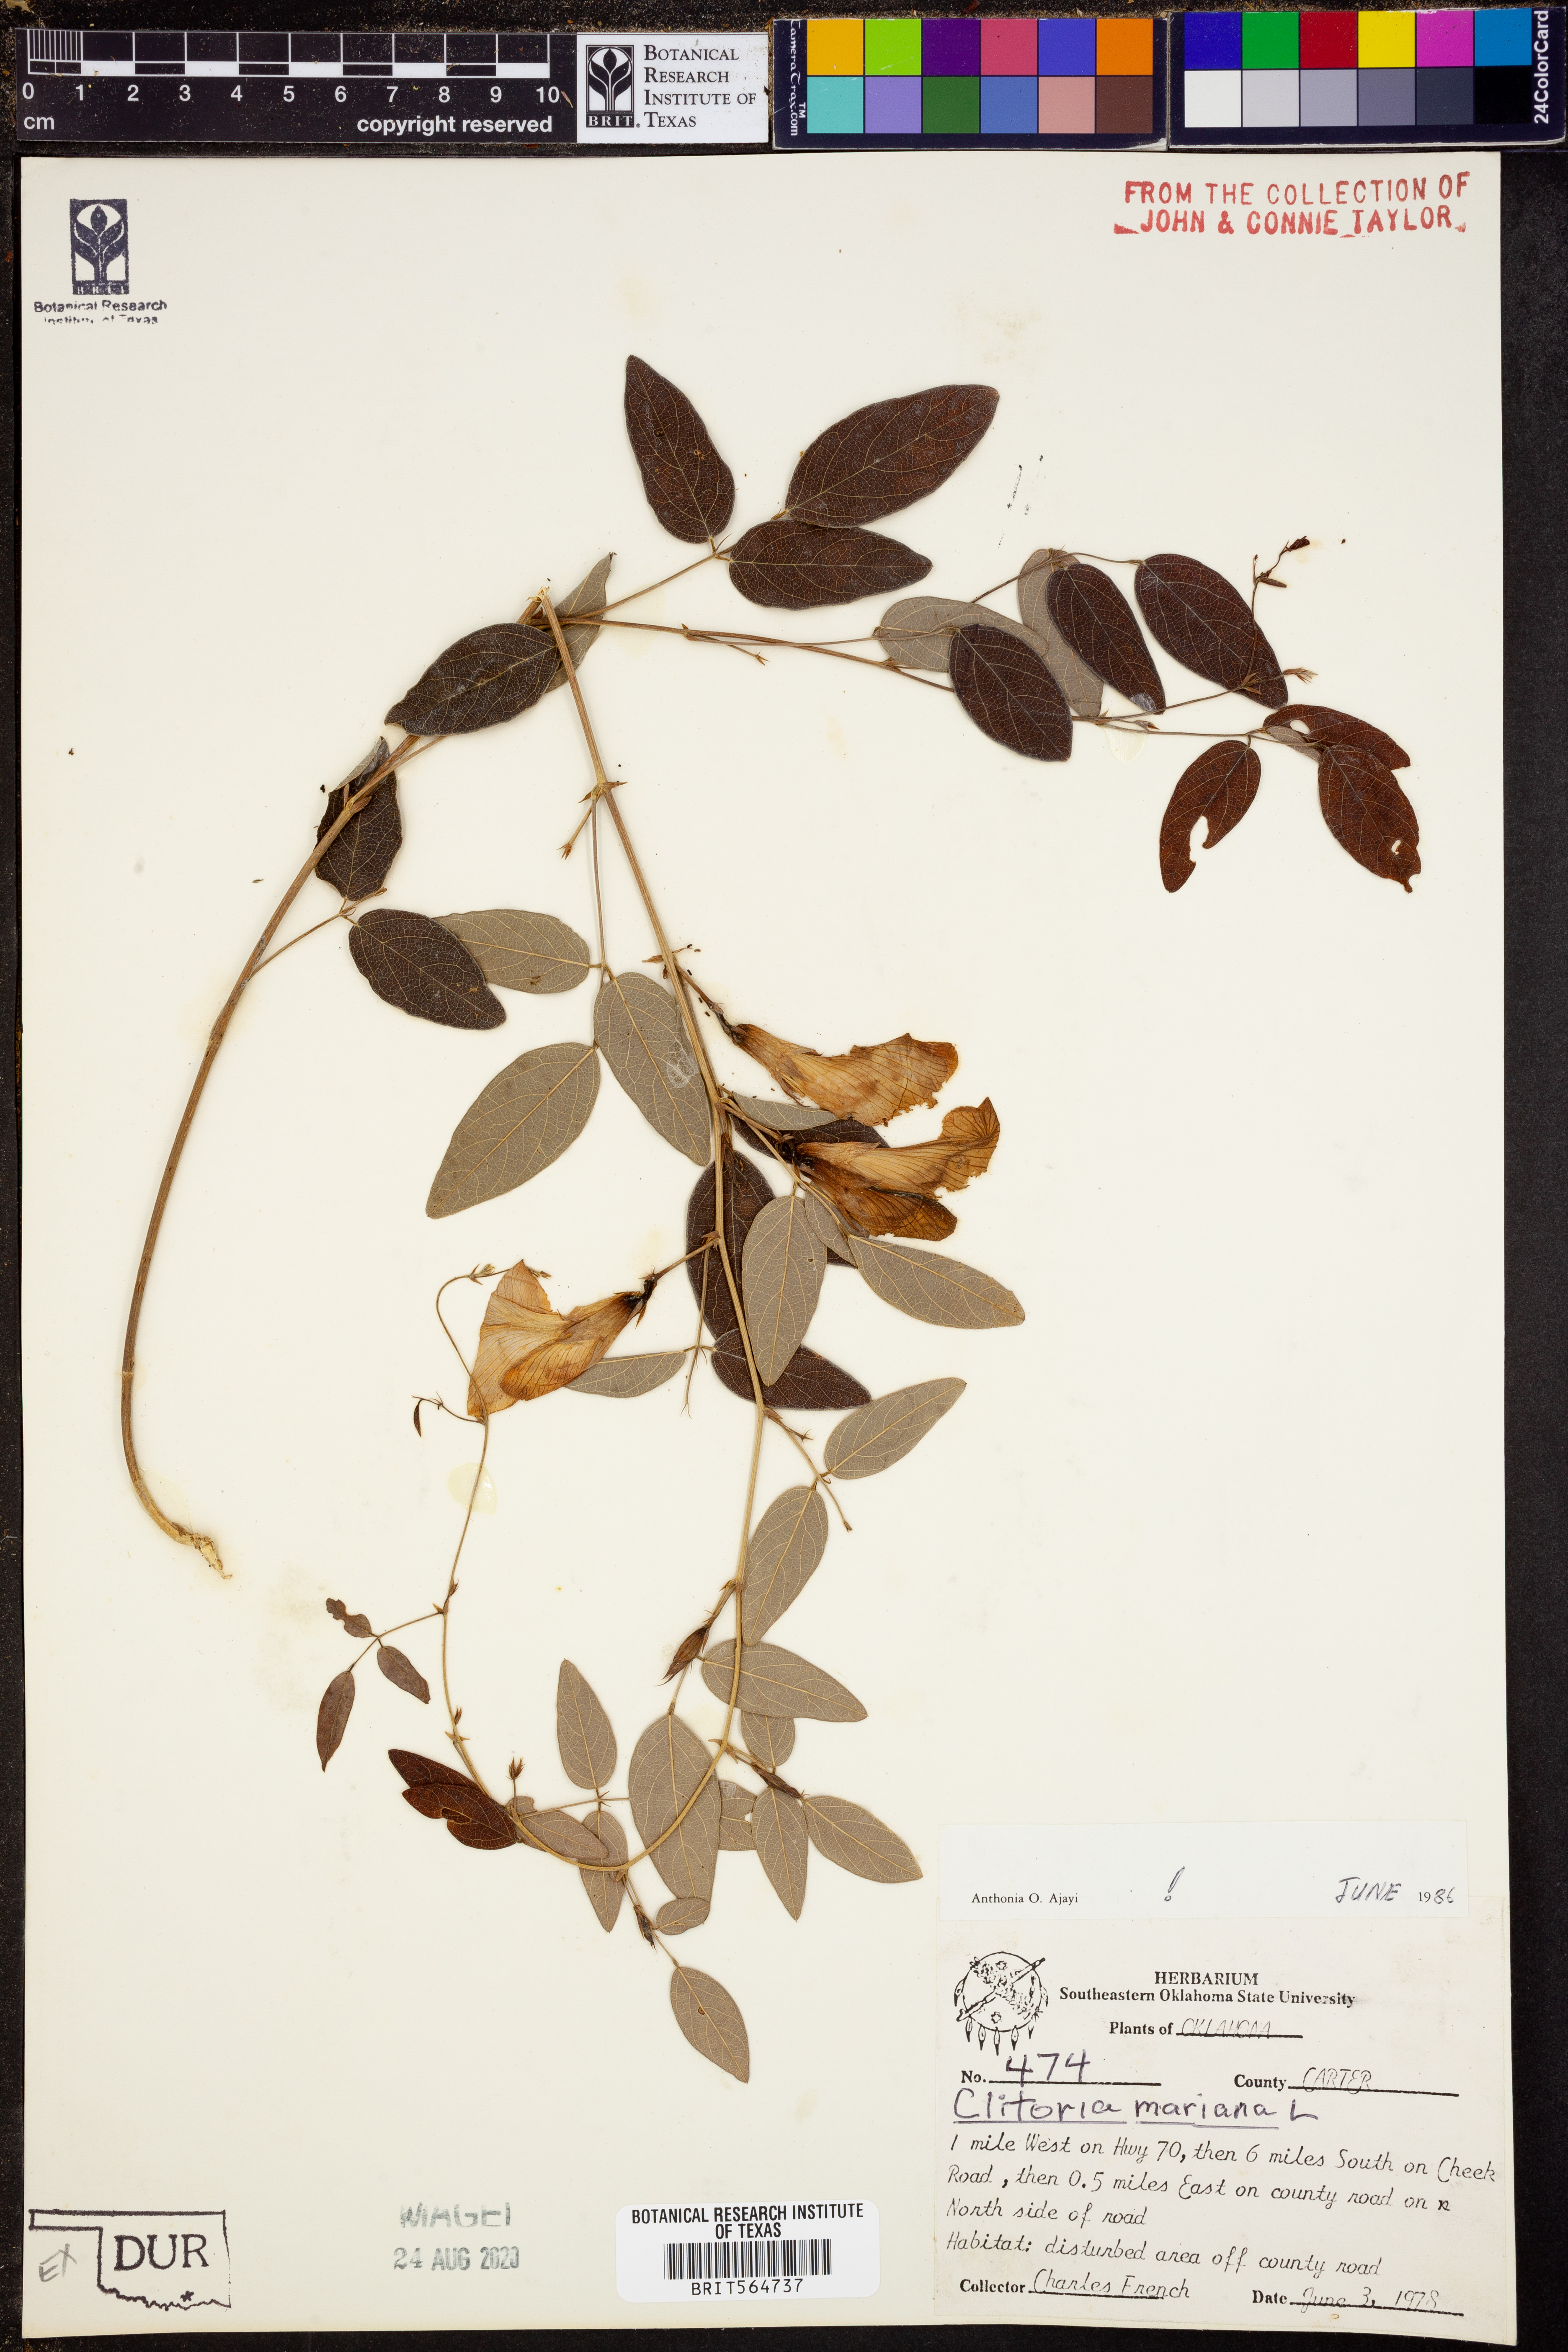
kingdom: Plantae
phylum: Tracheophyta
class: Magnoliopsida
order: Fabales
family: Fabaceae
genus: Clitoria
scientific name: Clitoria mariana
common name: Butterfly-pea
